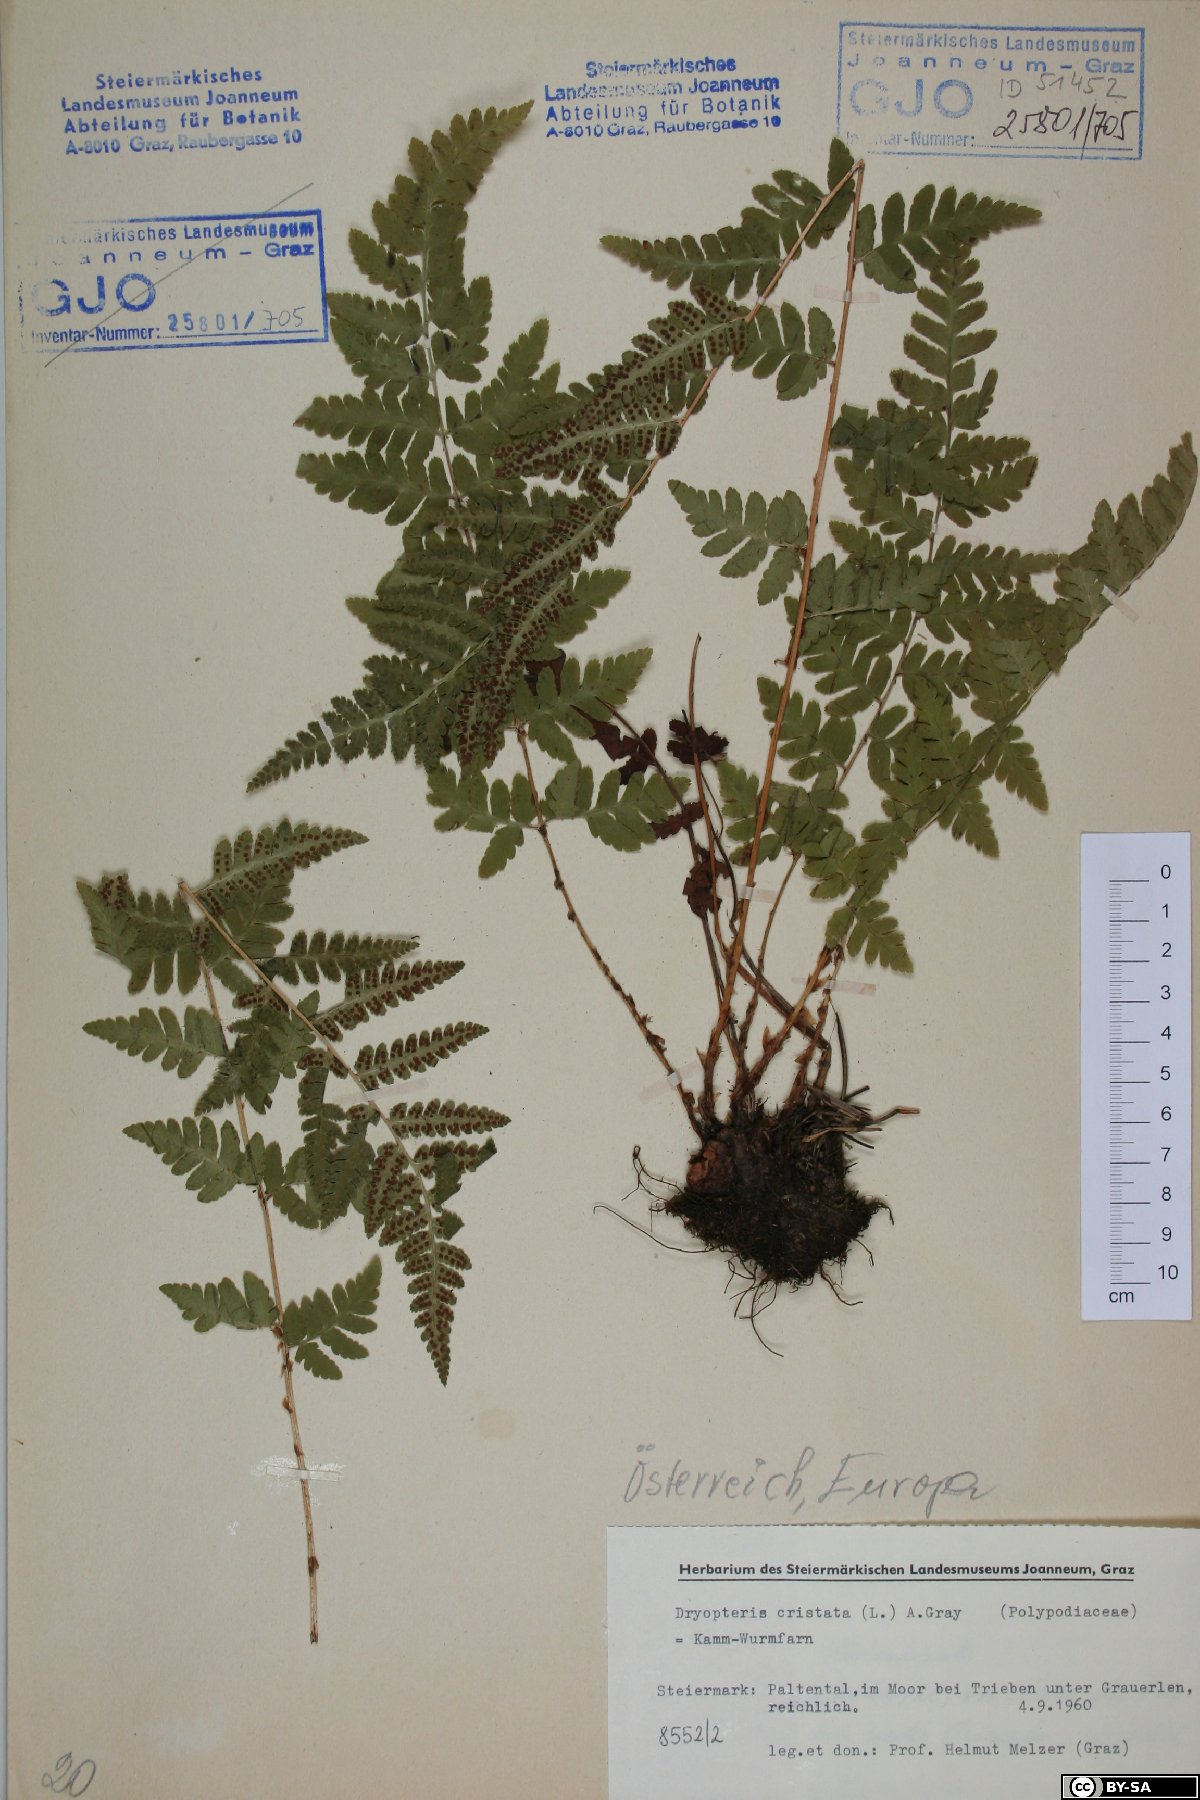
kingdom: Plantae
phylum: Tracheophyta
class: Polypodiopsida
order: Polypodiales
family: Dryopteridaceae
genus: Dryopteris
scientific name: Dryopteris cristata
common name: Crested wood fern
